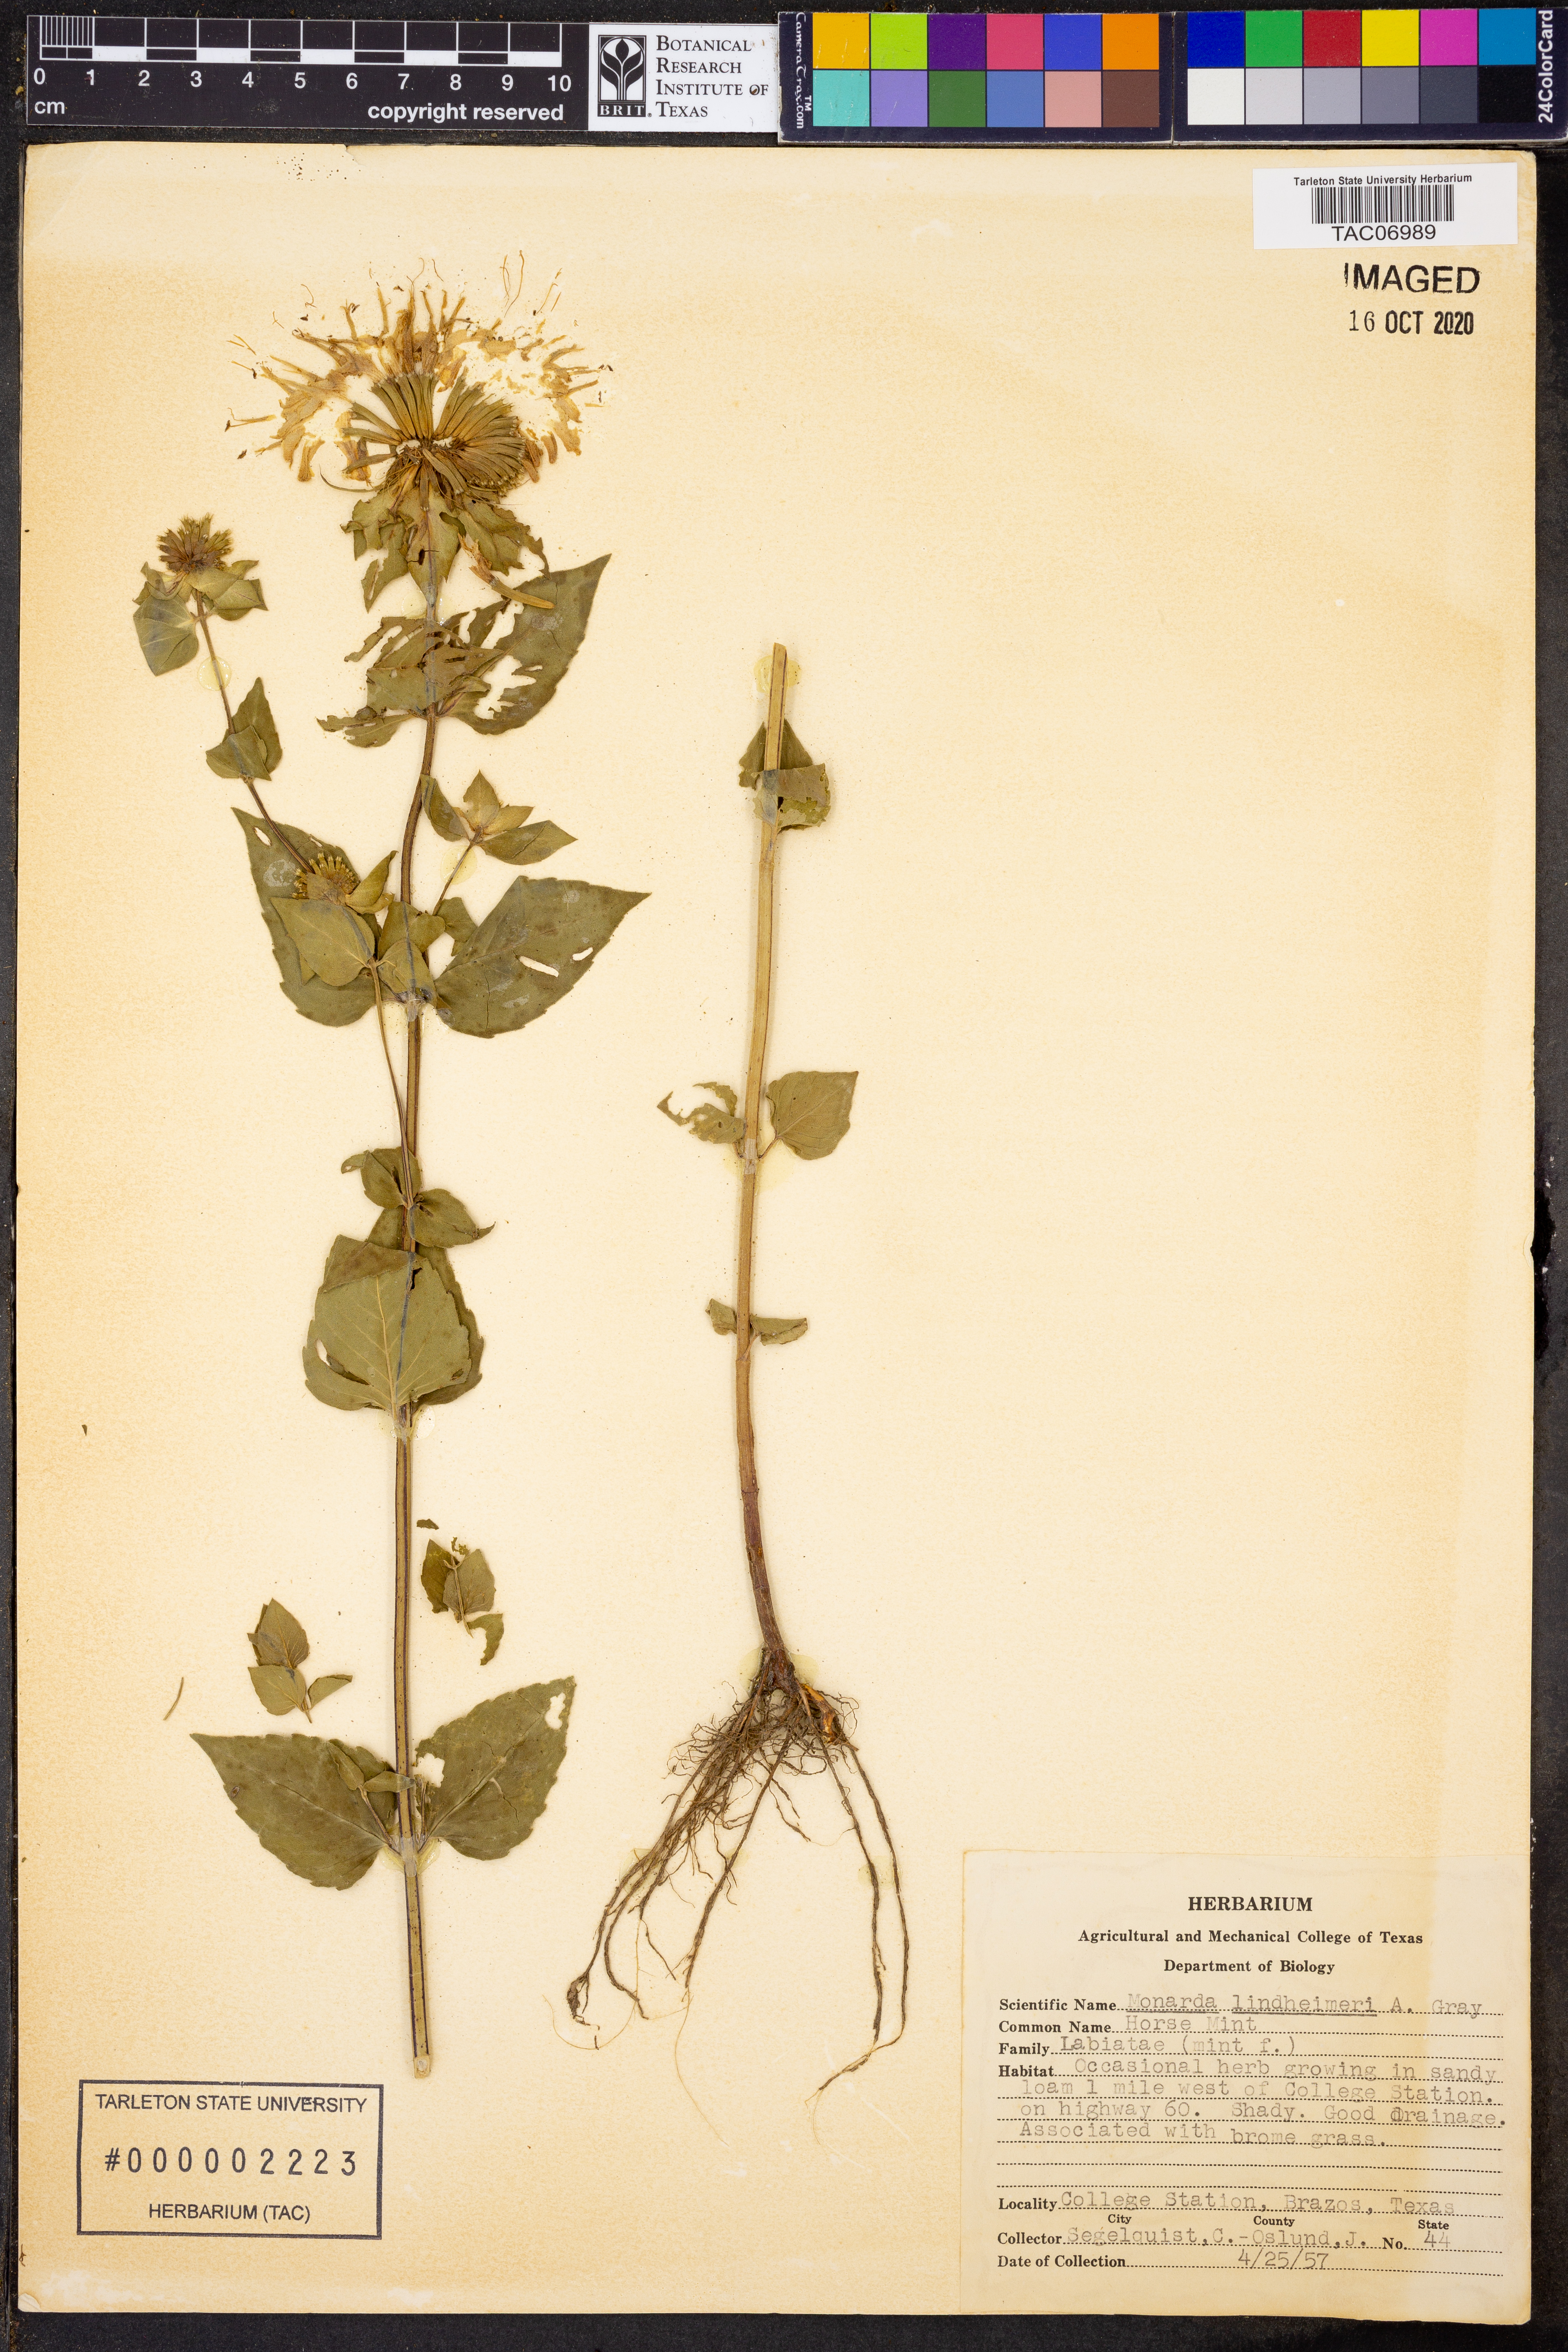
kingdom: Plantae
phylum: Tracheophyta
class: Magnoliopsida
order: Lamiales
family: Lamiaceae
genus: Monarda
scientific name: Monarda lindheimeri
